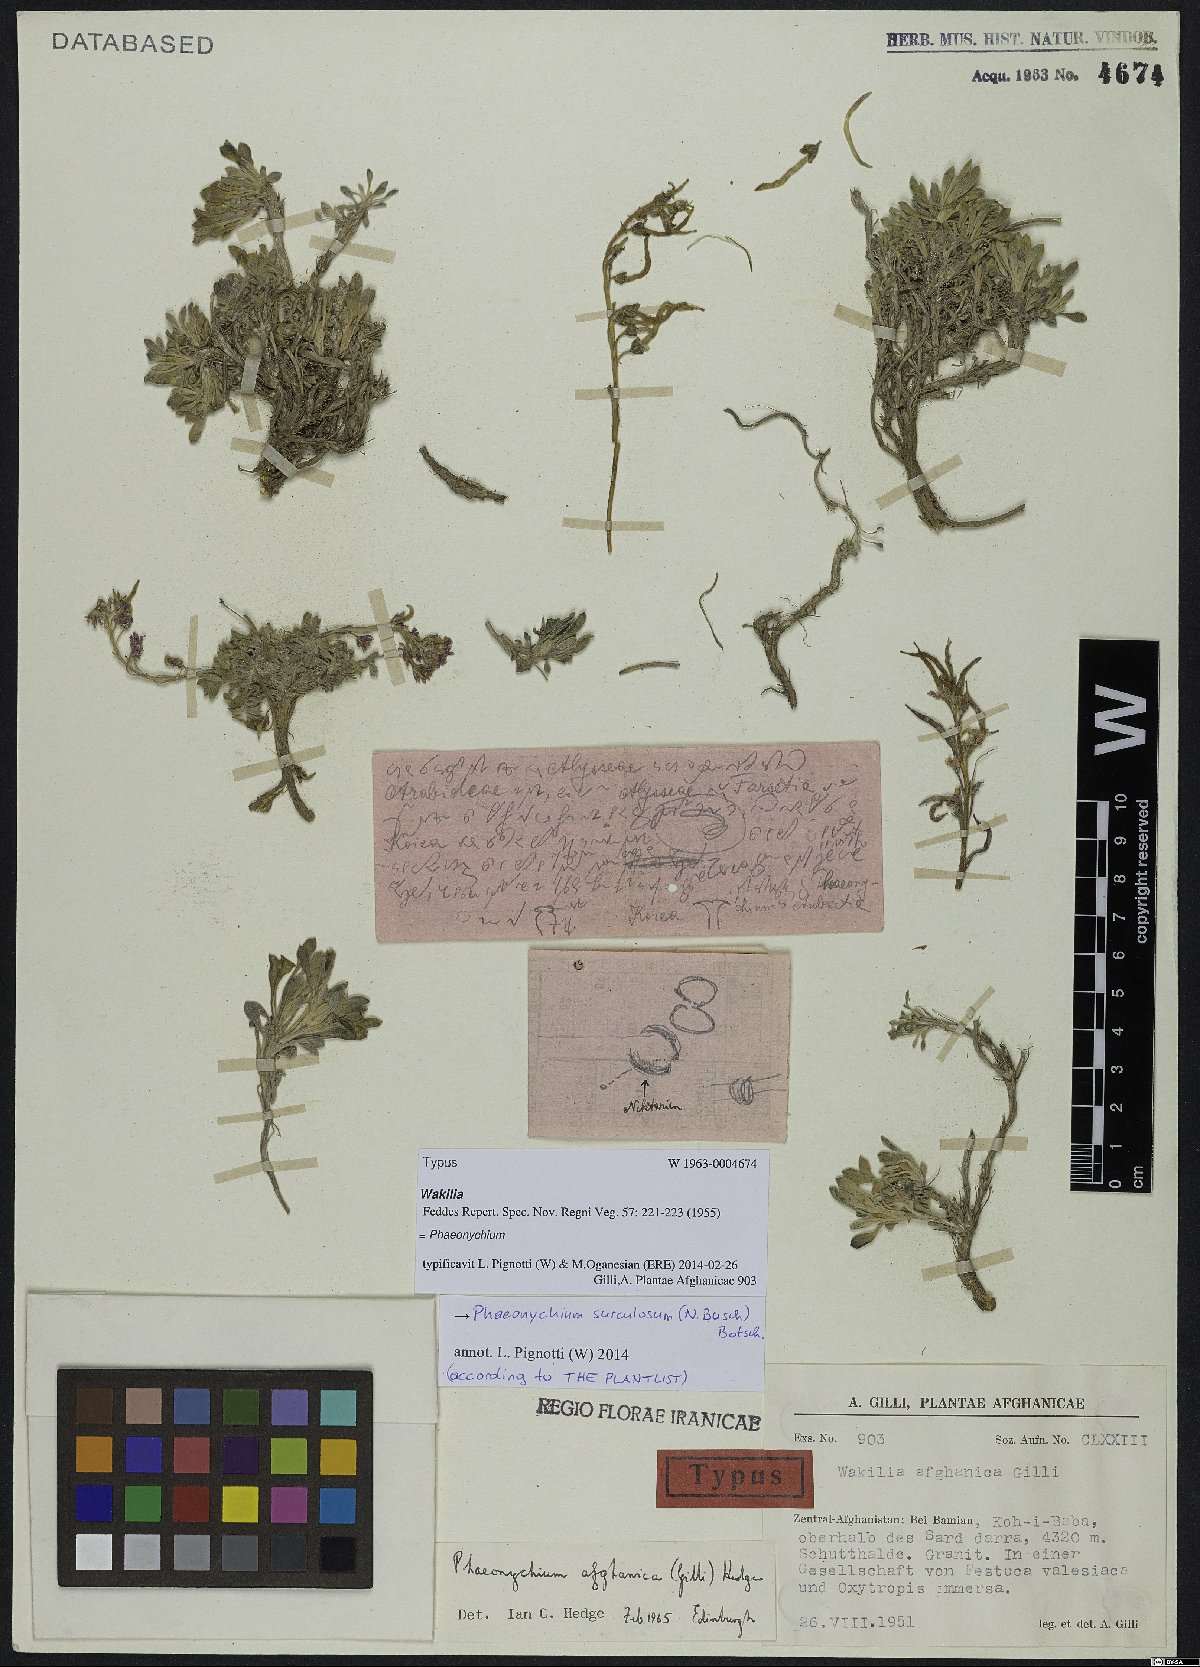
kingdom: Plantae
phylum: Tracheophyta
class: Magnoliopsida
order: Brassicales
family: Brassicaceae
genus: Solms-laubachia
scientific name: Solms-laubachia surculosa
